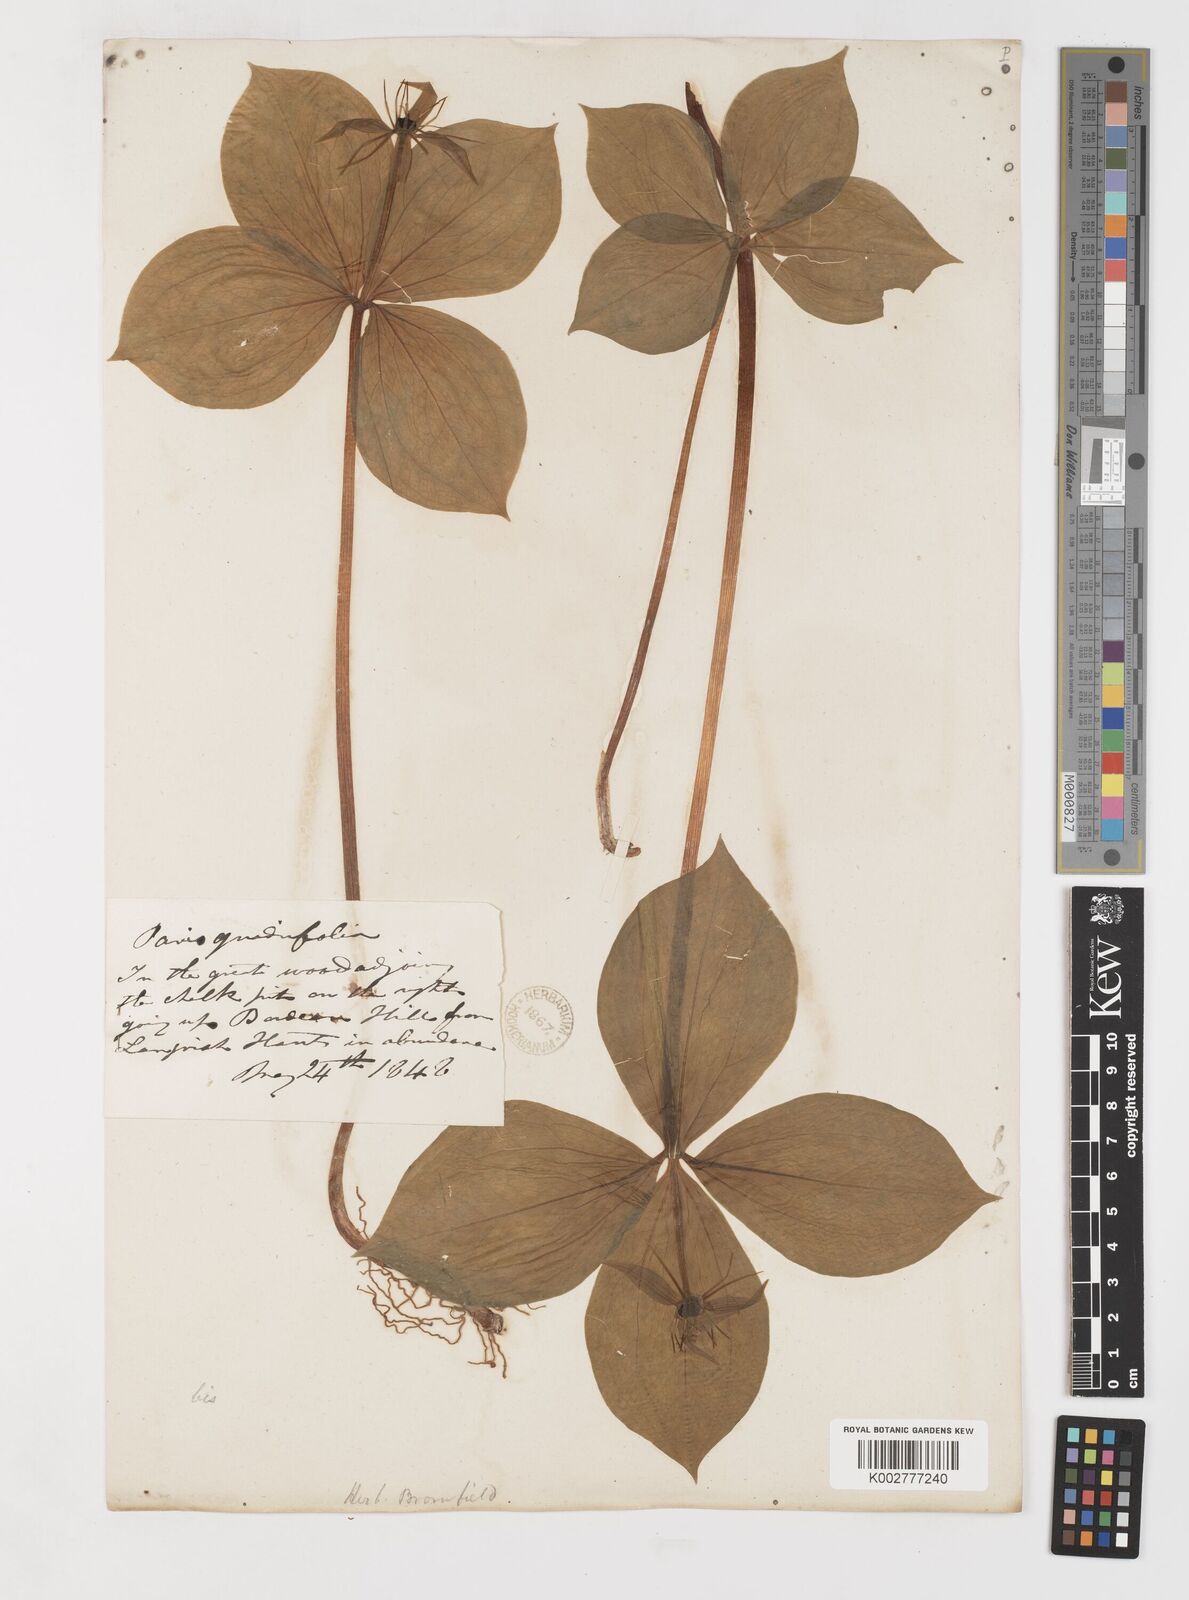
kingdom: Plantae
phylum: Tracheophyta
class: Liliopsida
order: Liliales
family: Melanthiaceae
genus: Paris
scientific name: Paris
